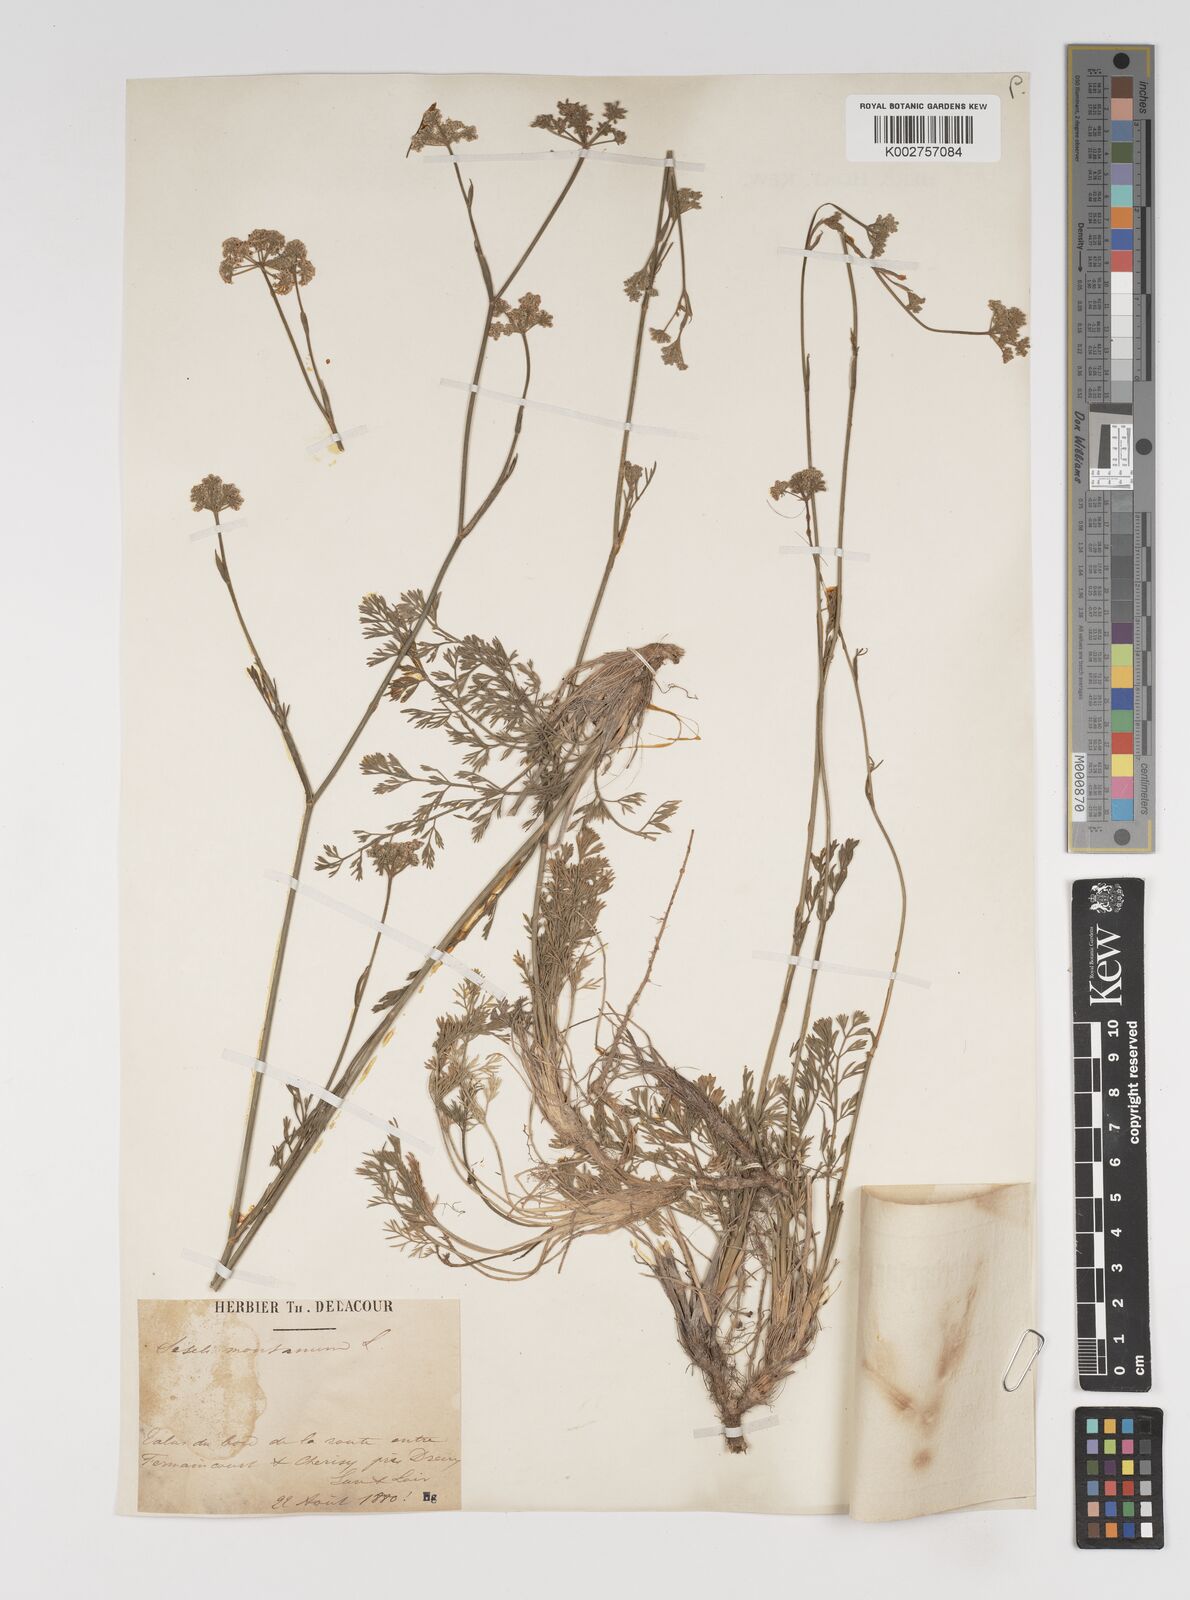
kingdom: Plantae
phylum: Tracheophyta
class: Magnoliopsida
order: Apiales
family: Apiaceae
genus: Seseli
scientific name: Seseli montanum
